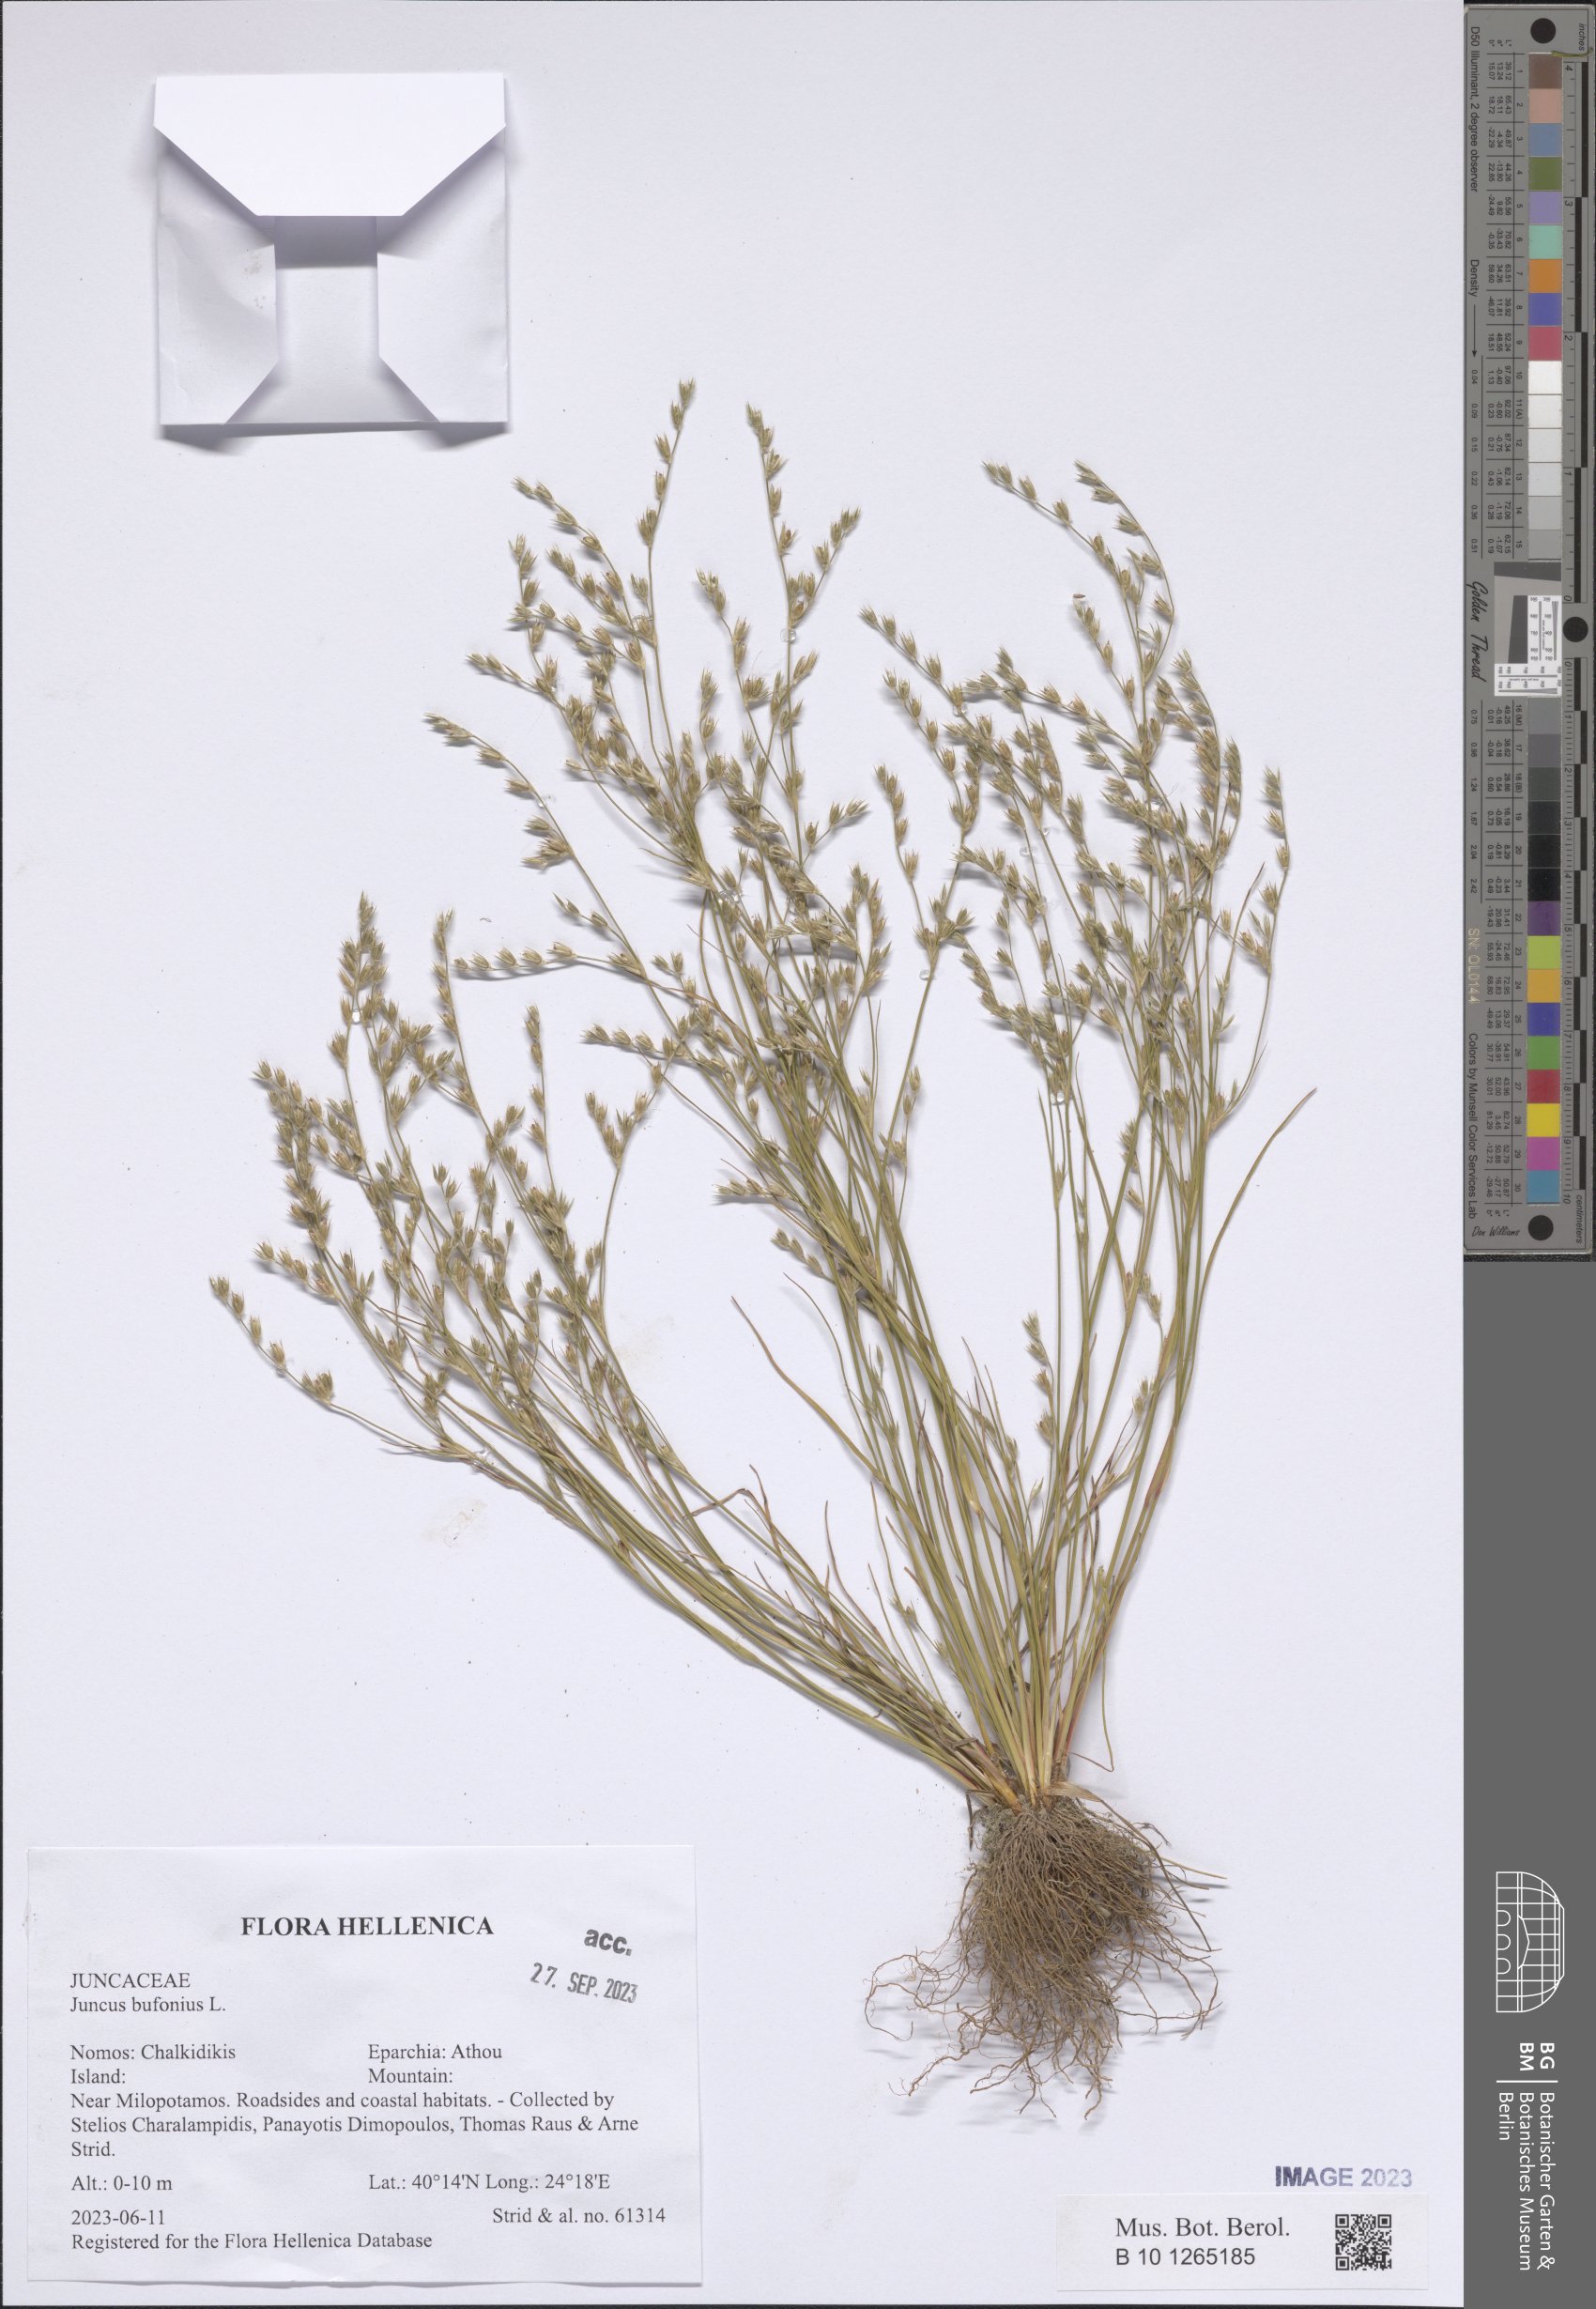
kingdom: Plantae
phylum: Tracheophyta
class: Liliopsida
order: Poales
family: Juncaceae
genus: Juncus
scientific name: Juncus bufonius
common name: Toad rush
